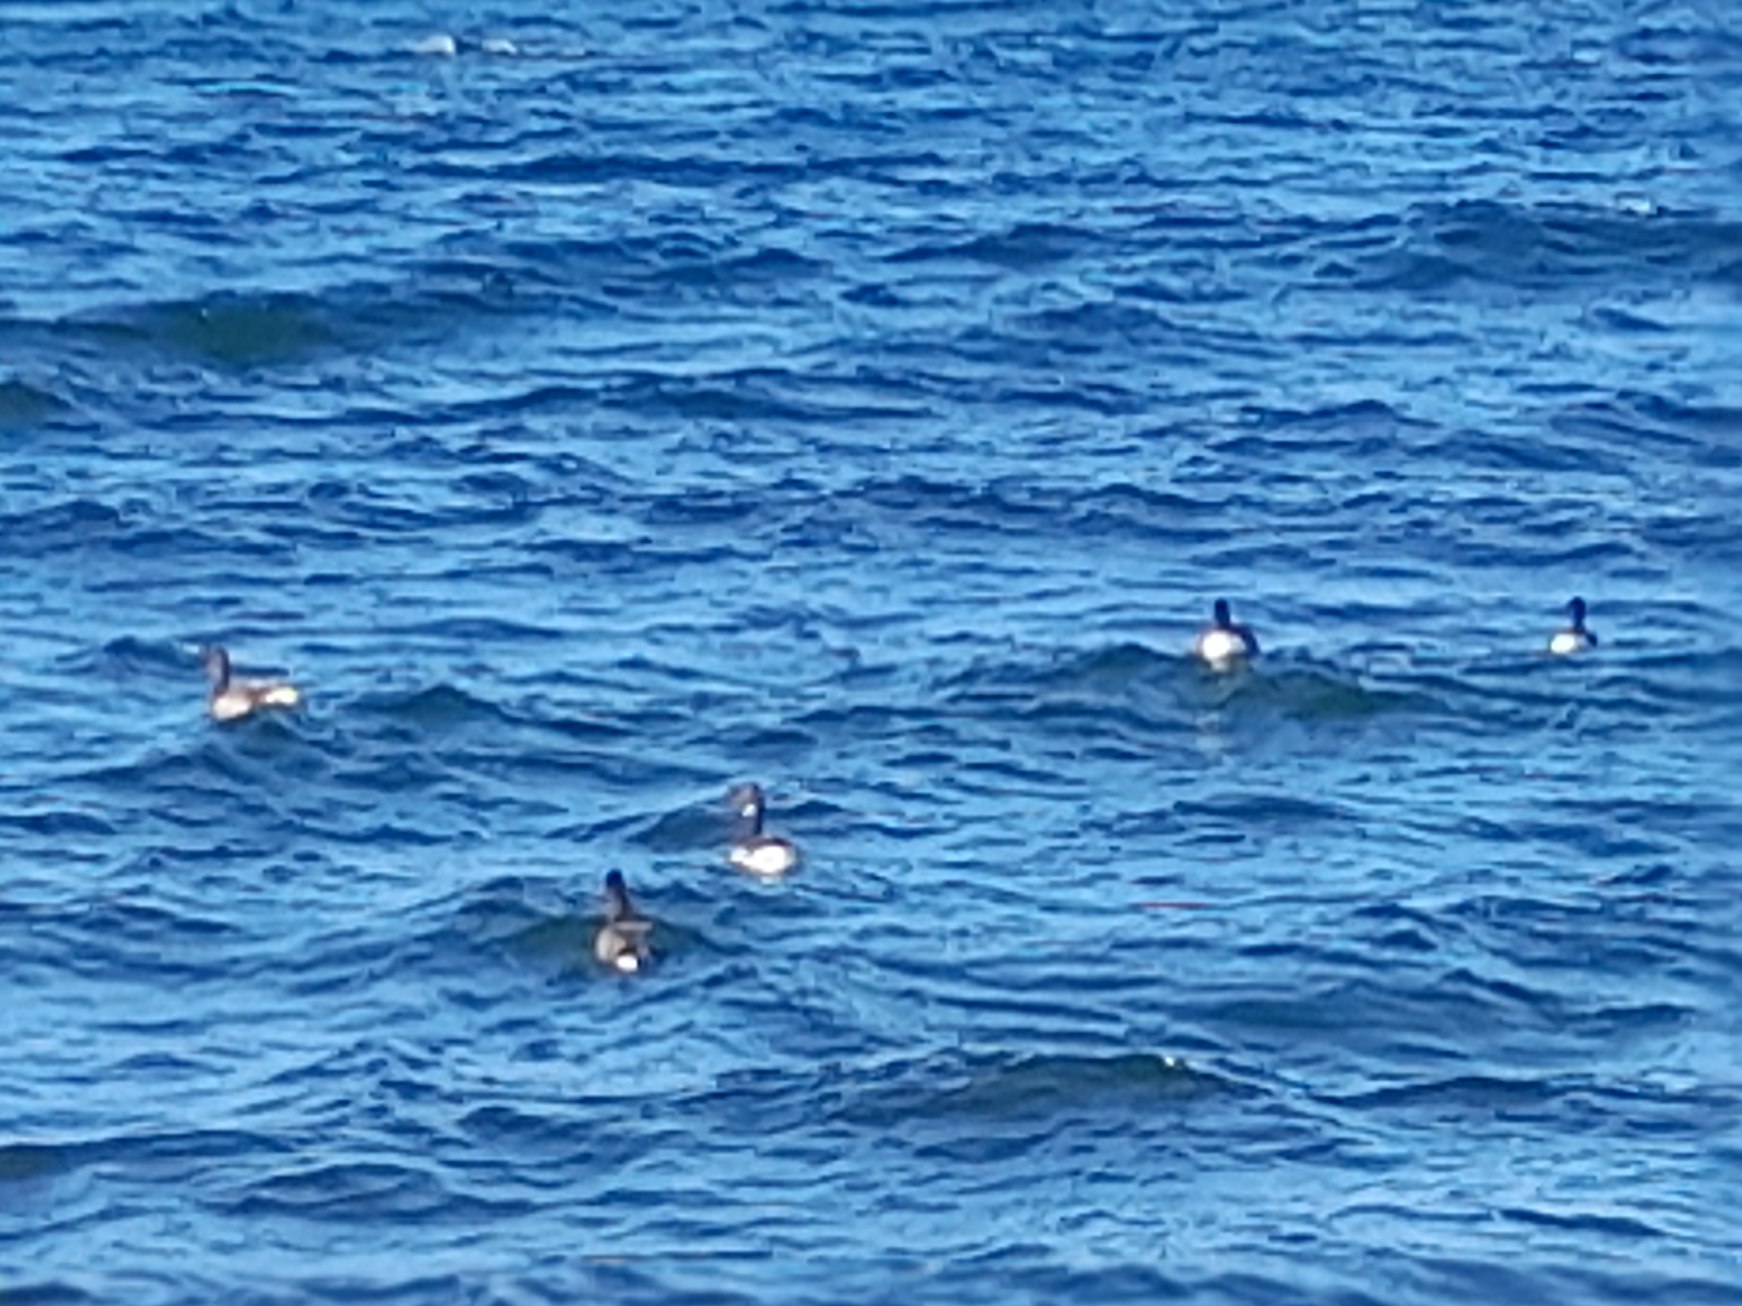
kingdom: Animalia
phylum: Chordata
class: Aves
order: Anseriformes
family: Anatidae
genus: Branta
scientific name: Branta bernicla
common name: Knortegås
